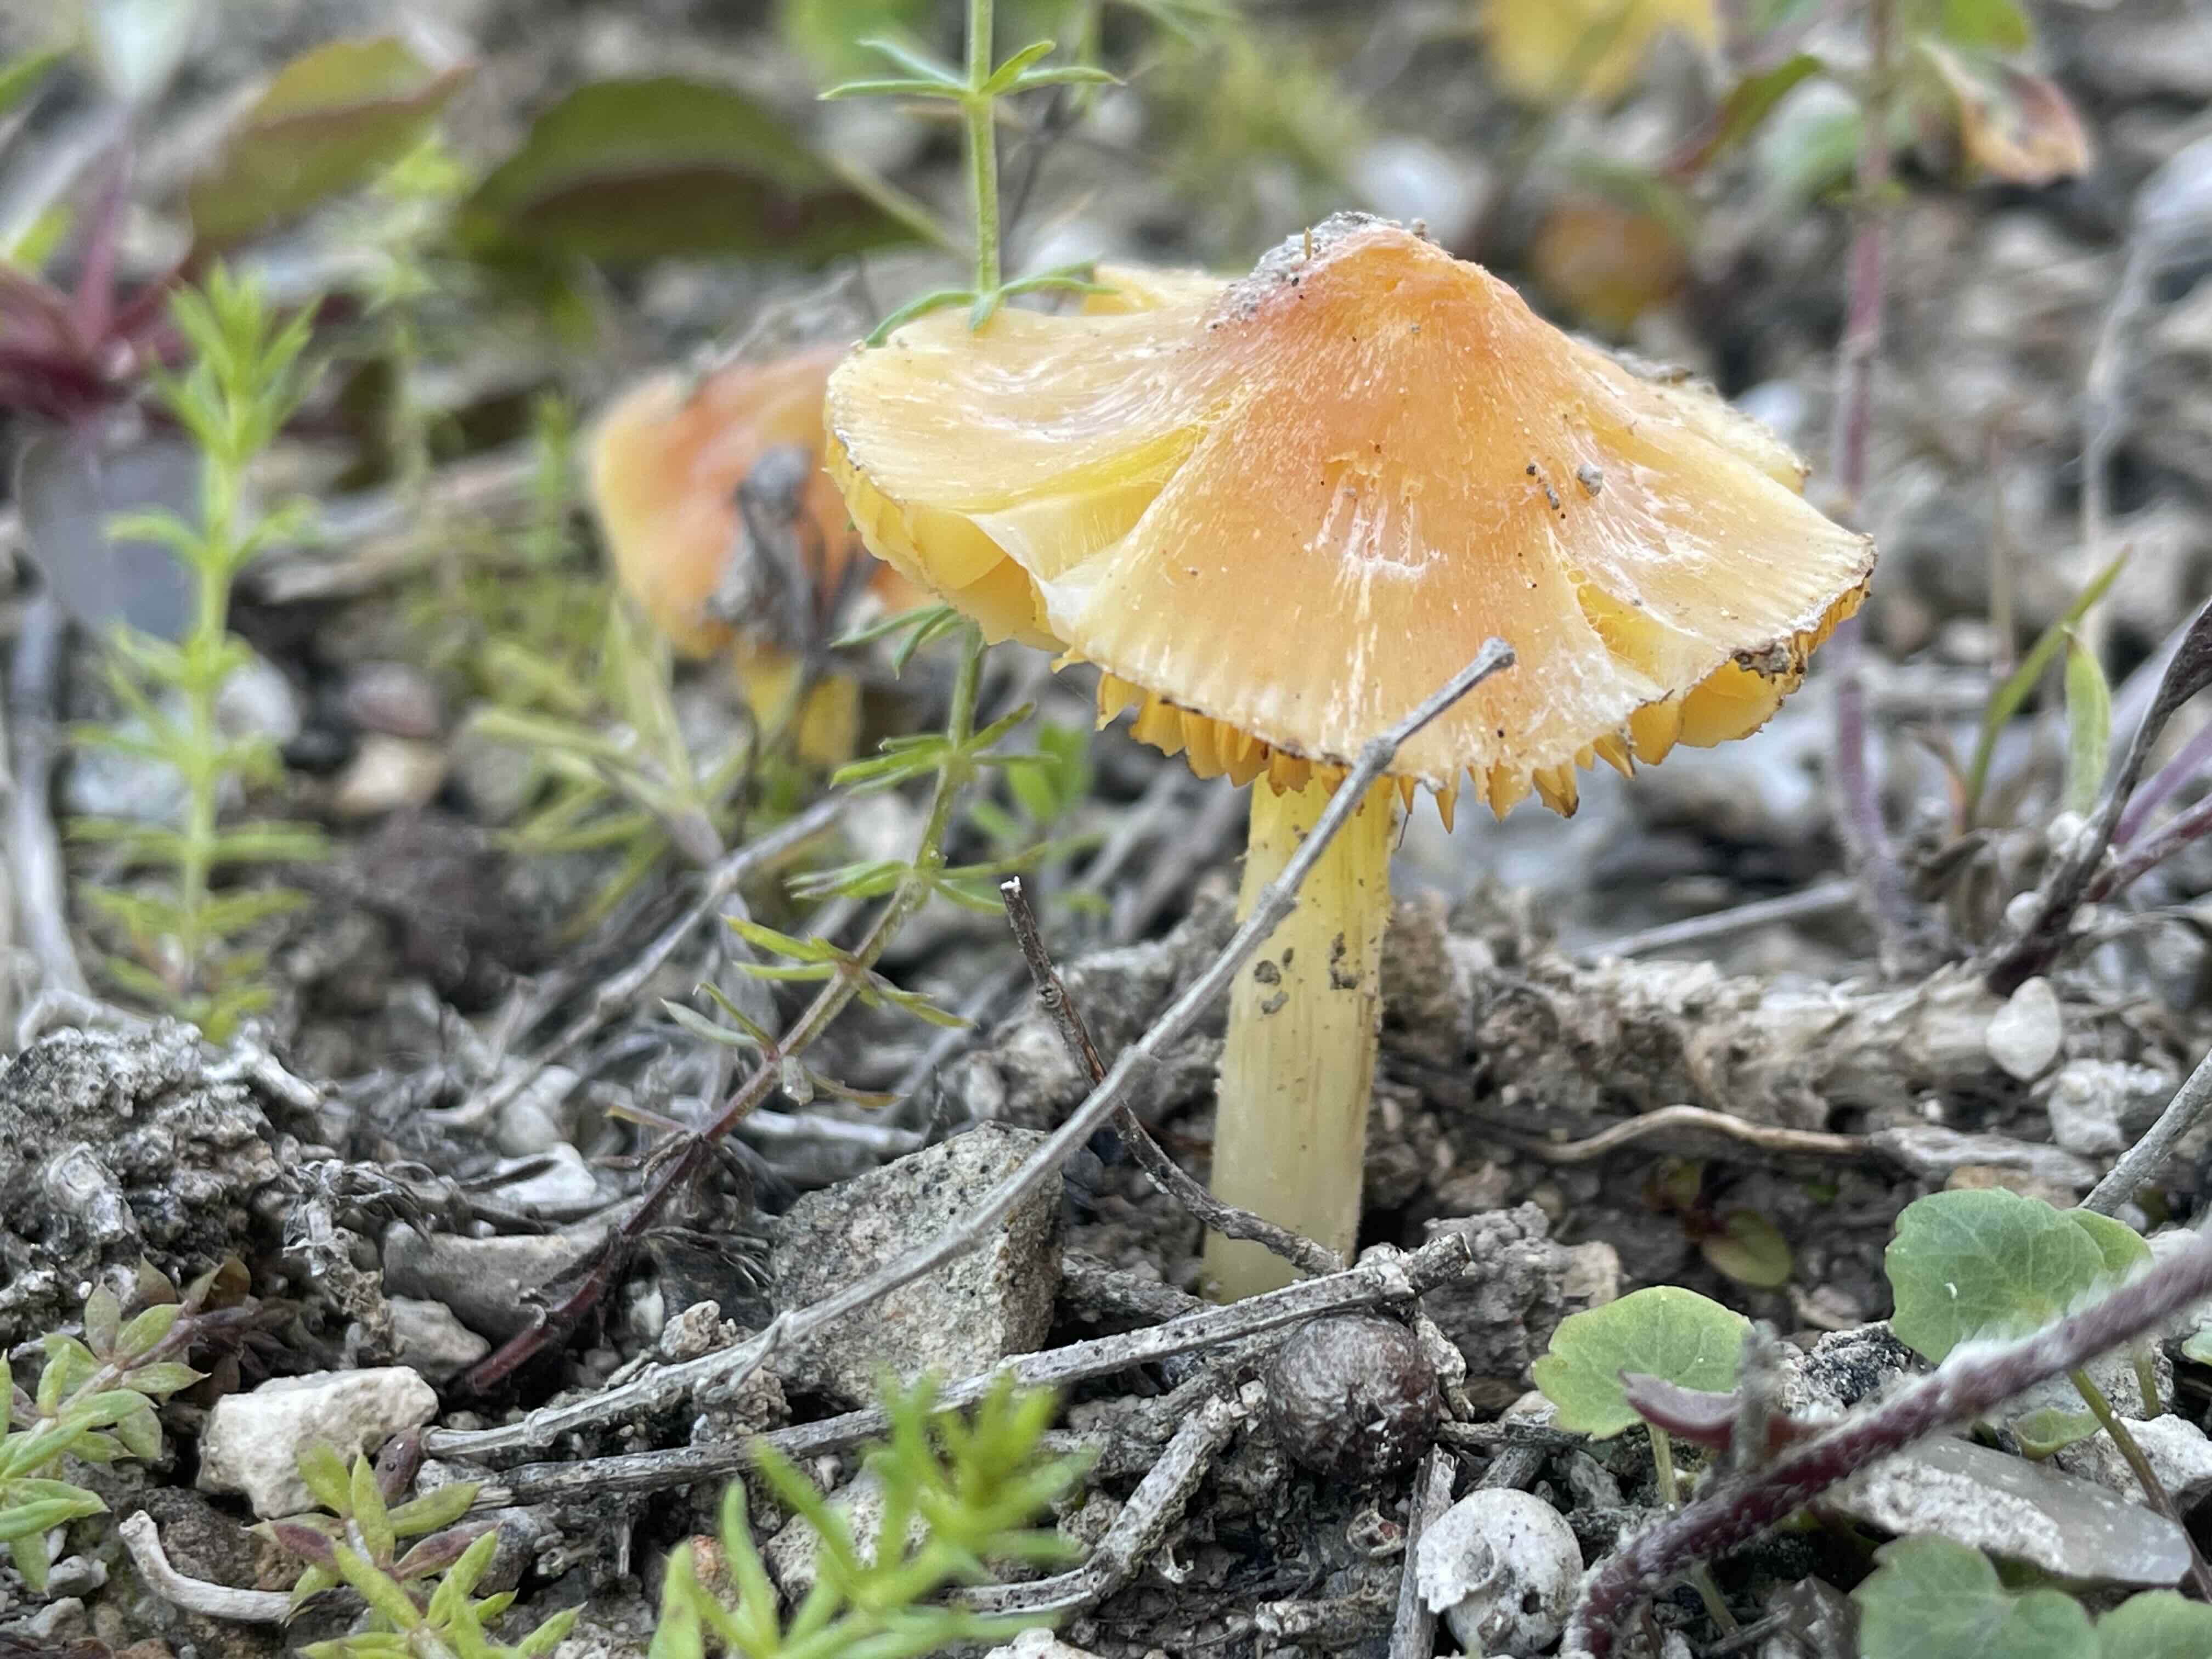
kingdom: Fungi
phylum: Basidiomycota
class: Agaricomycetes
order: Agaricales
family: Hygrophoraceae
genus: Hygrocybe
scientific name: Hygrocybe
